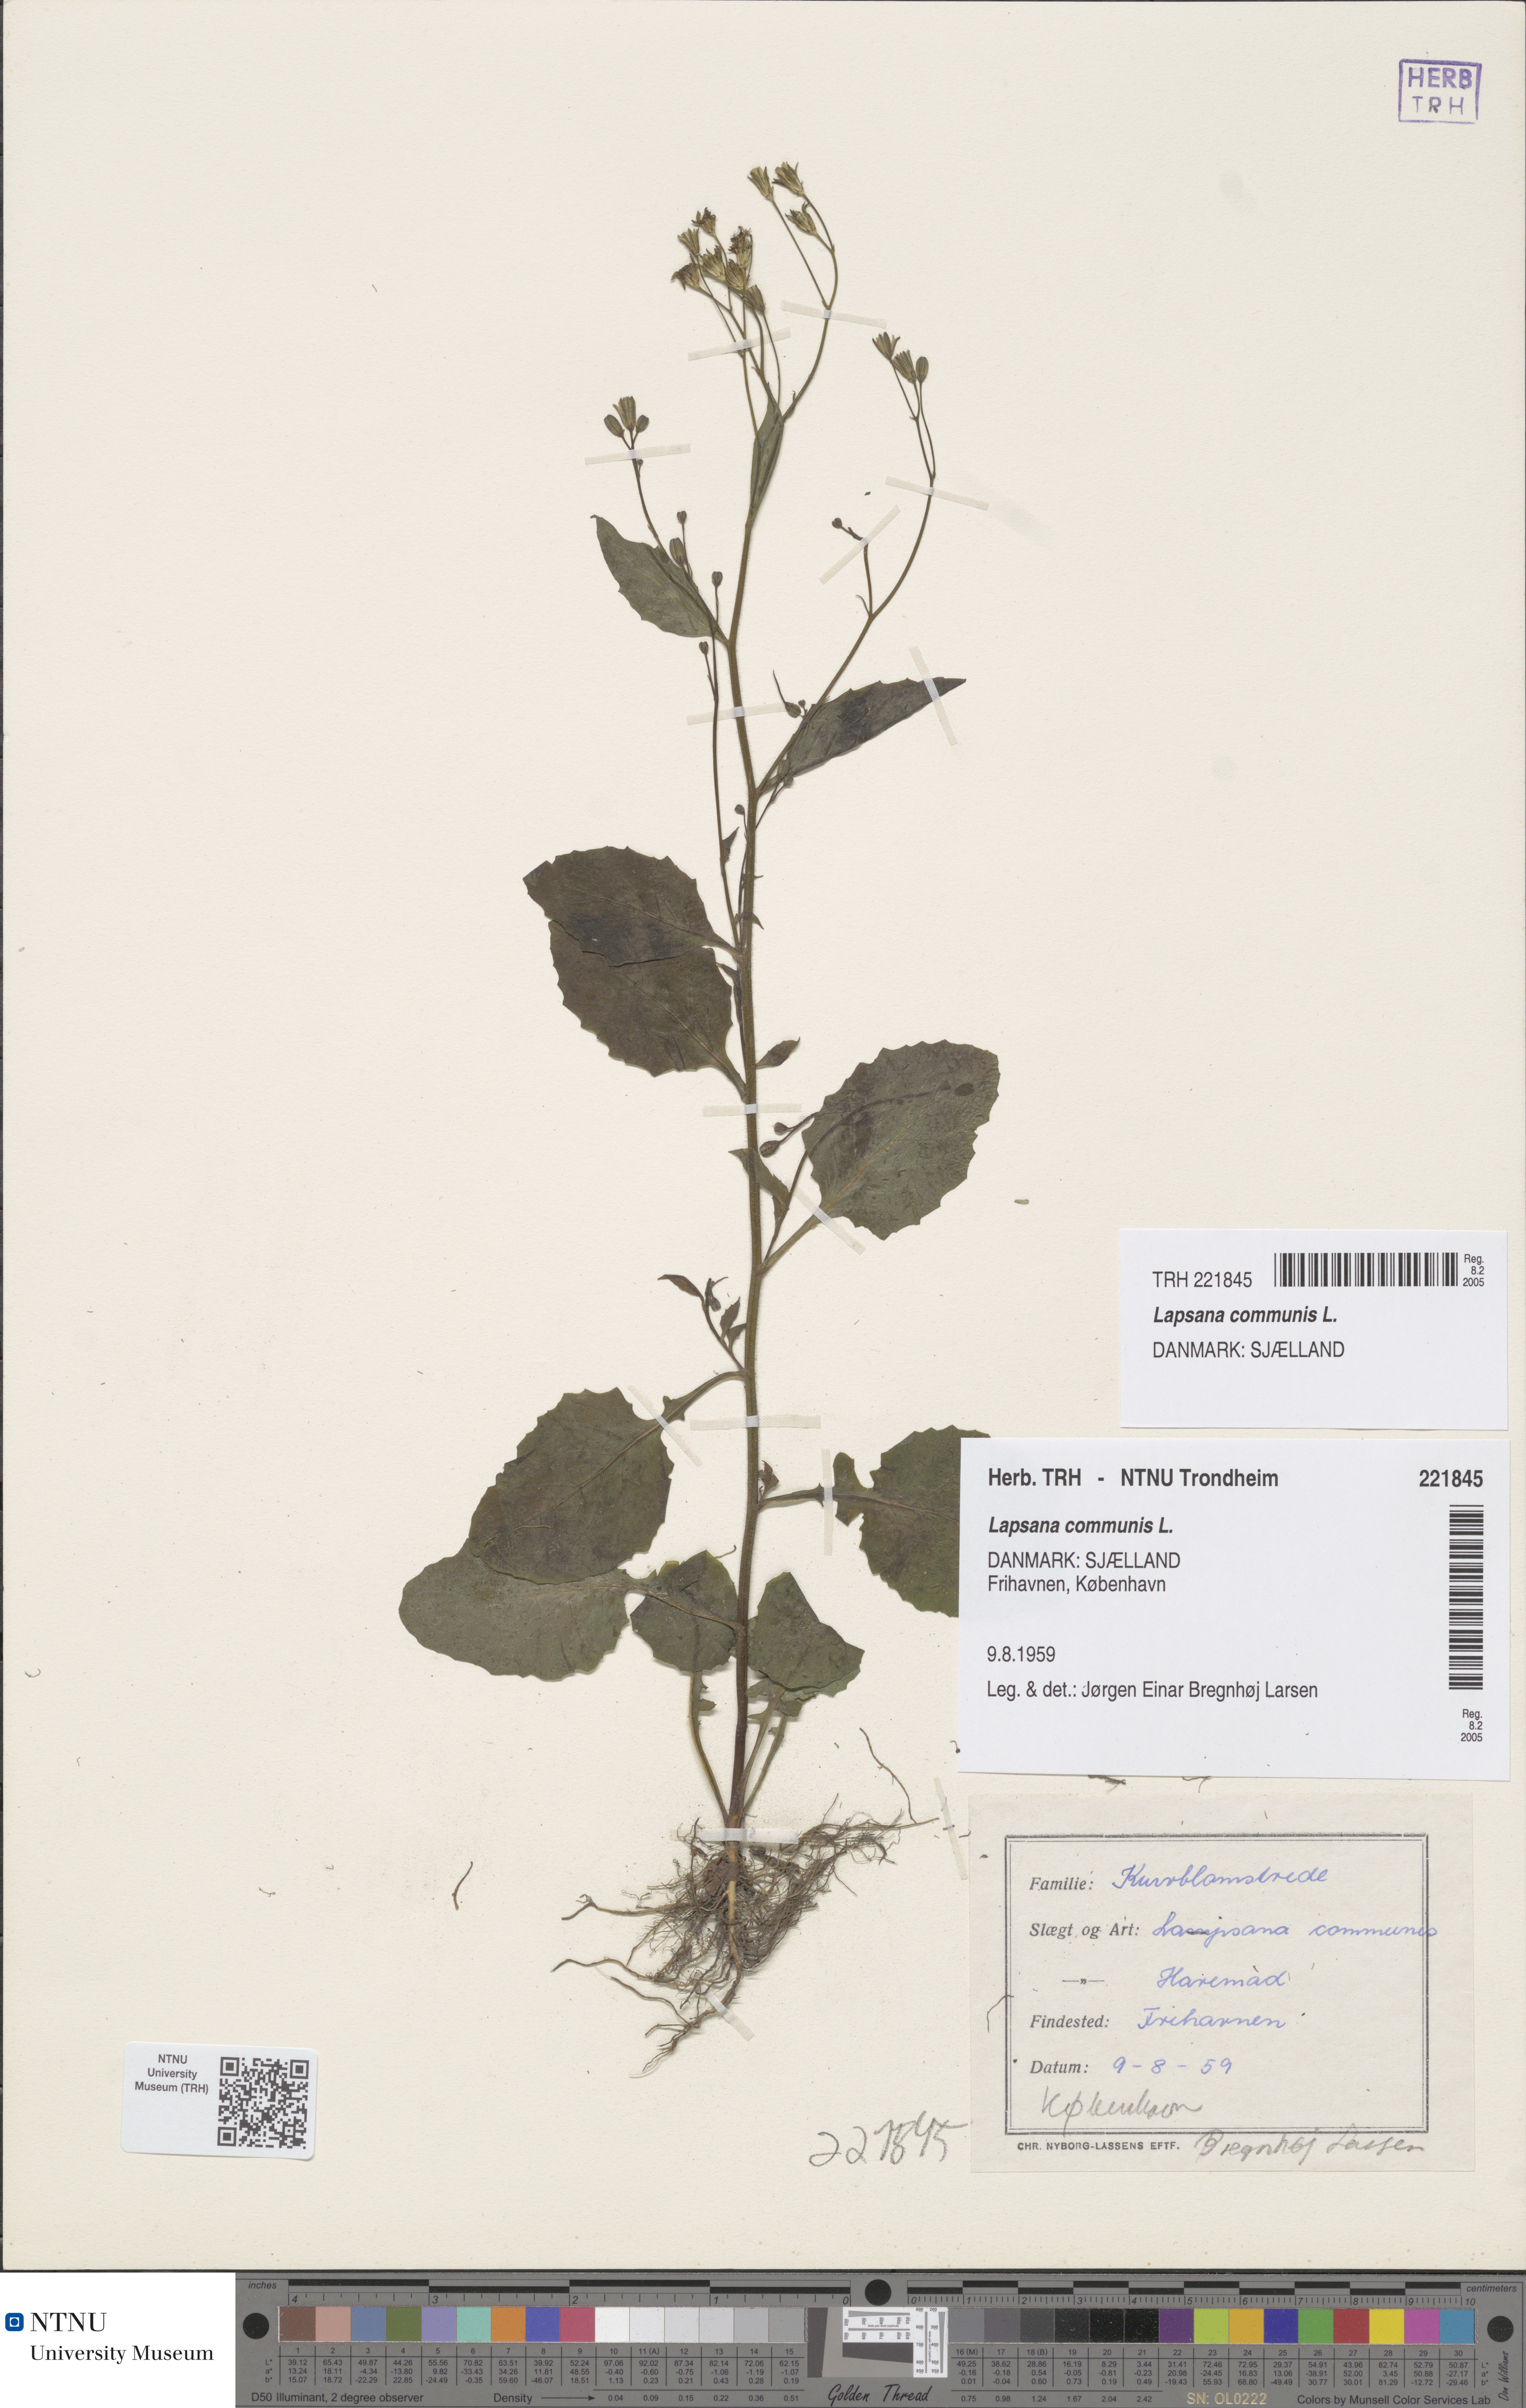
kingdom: Plantae
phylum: Tracheophyta
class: Magnoliopsida
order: Asterales
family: Asteraceae
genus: Lapsana
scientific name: Lapsana communis
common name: Nipplewort
